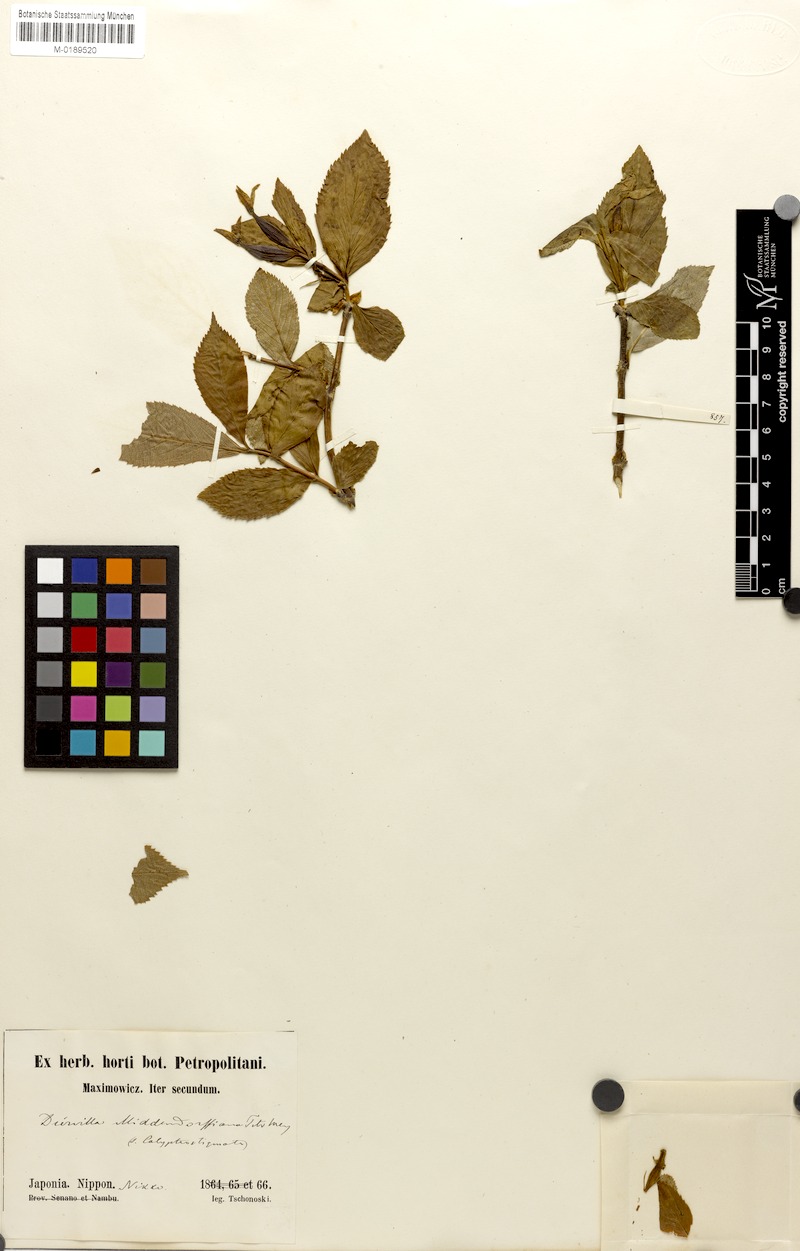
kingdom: Plantae
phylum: Tracheophyta
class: Magnoliopsida
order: Dipsacales
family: Caprifoliaceae
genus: Weigela
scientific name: Weigela middendorfiana
